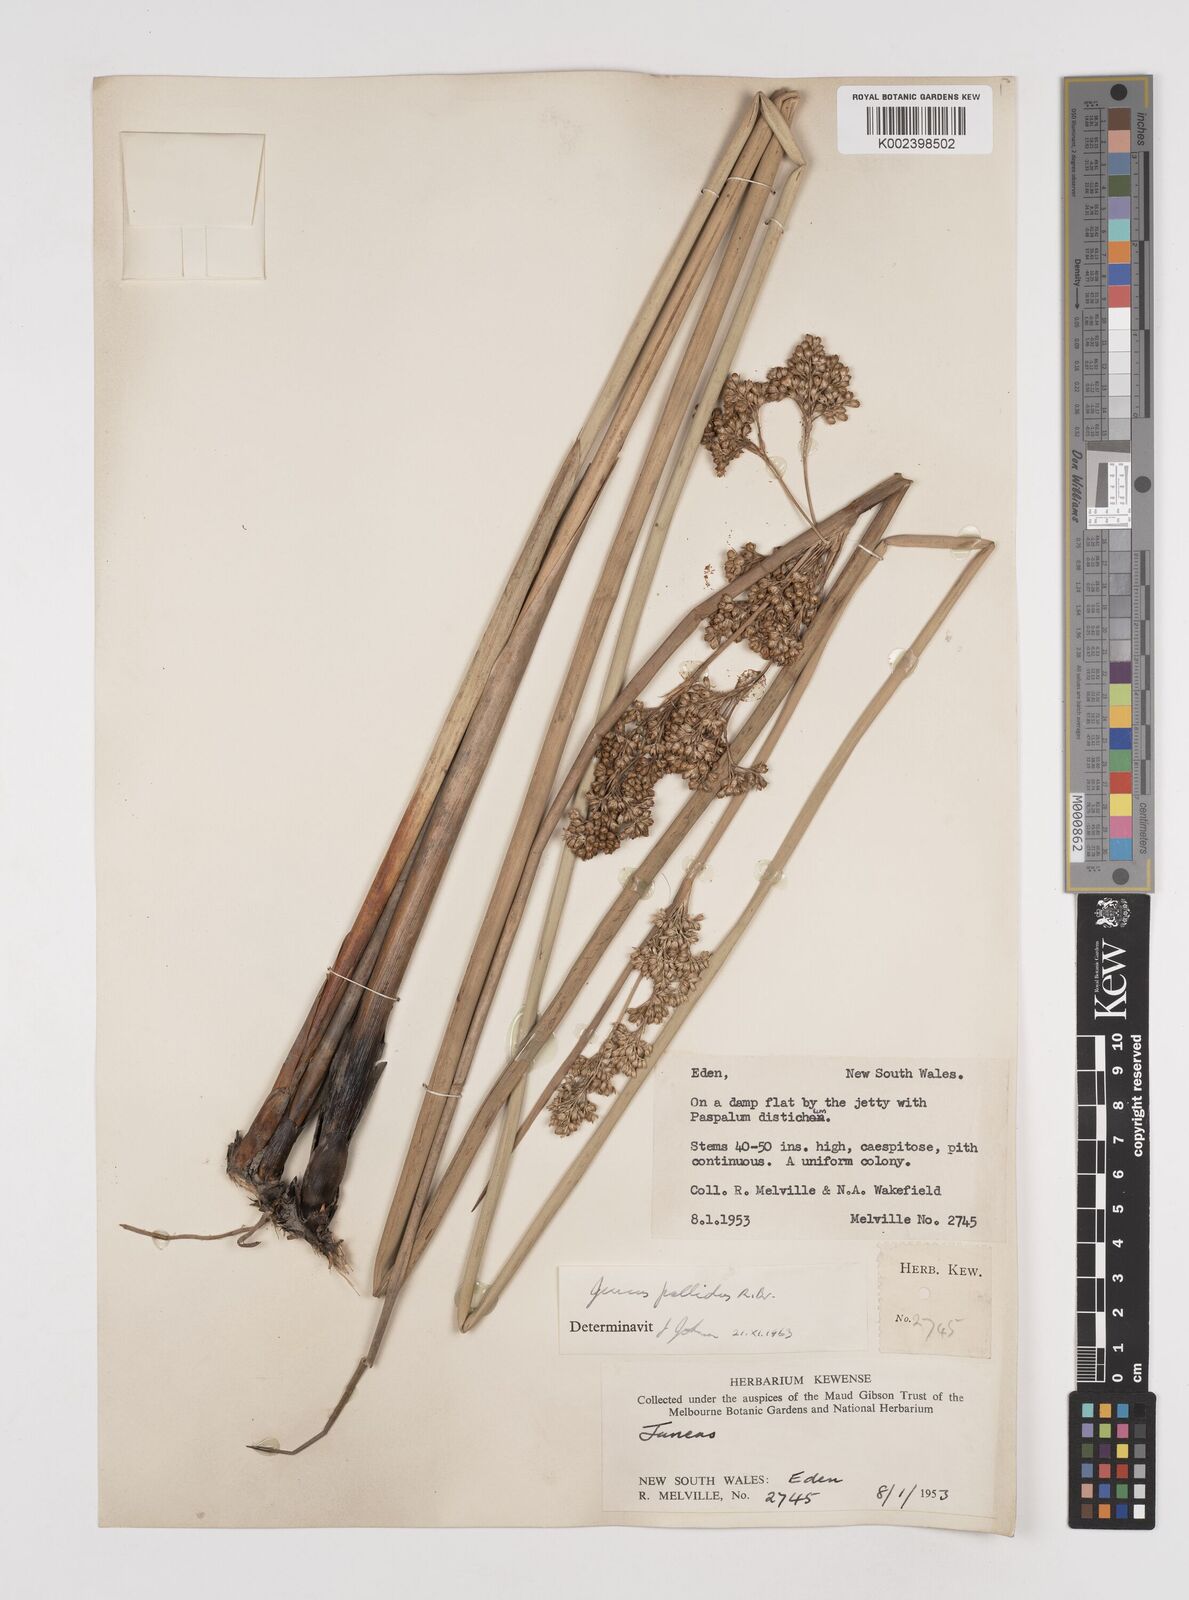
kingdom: Plantae
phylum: Tracheophyta
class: Liliopsida
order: Poales
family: Juncaceae
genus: Juncus
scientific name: Juncus pallidus
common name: Great soft-rush
